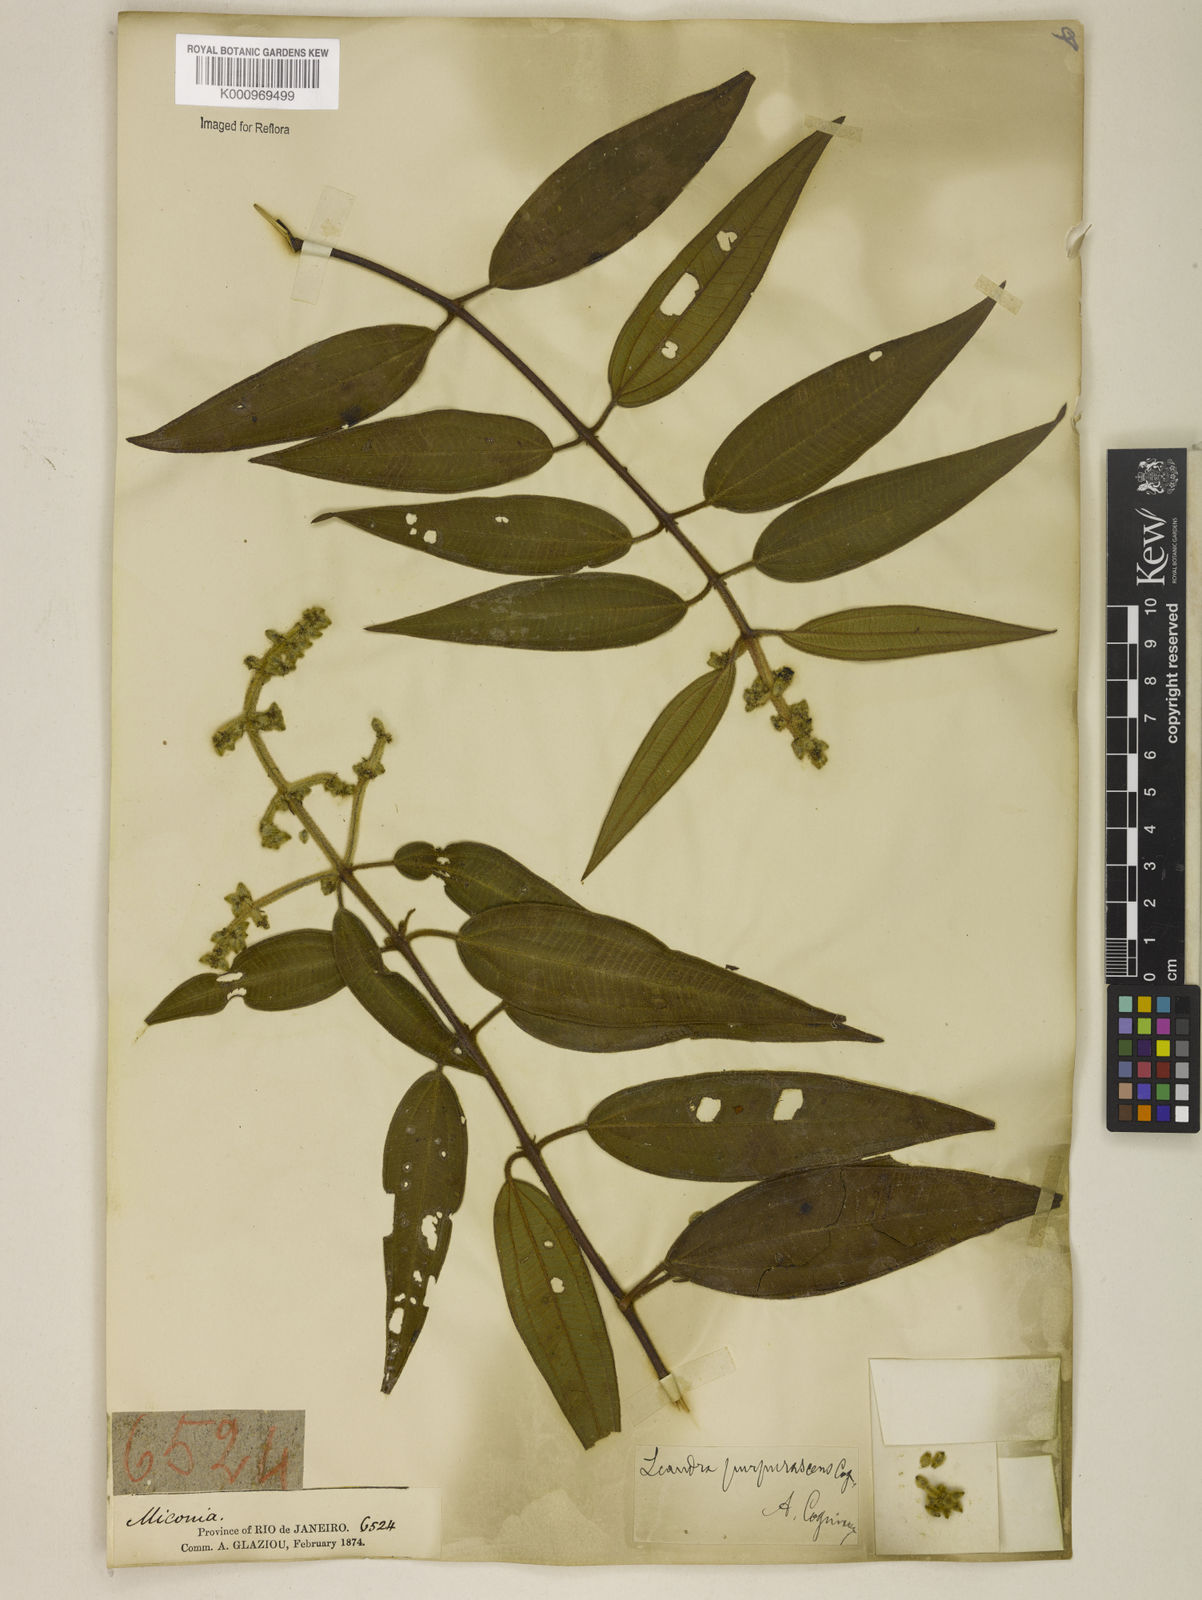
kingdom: Plantae
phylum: Tracheophyta
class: Magnoliopsida
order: Myrtales
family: Melastomataceae
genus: Miconia
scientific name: Miconia microstachya
